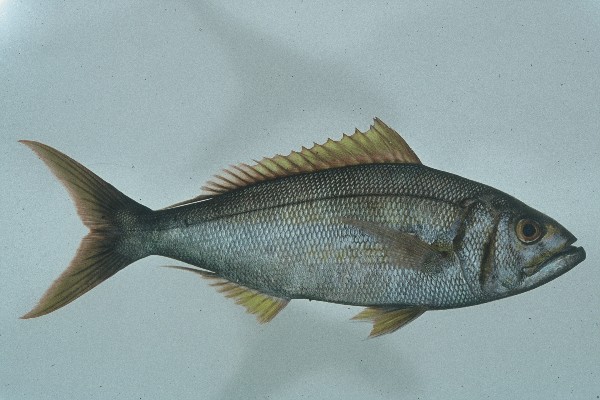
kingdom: Animalia
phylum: Chordata
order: Perciformes
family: Lutjanidae
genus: Aphareus
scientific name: Aphareus furca
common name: Smalltooth jobfish
